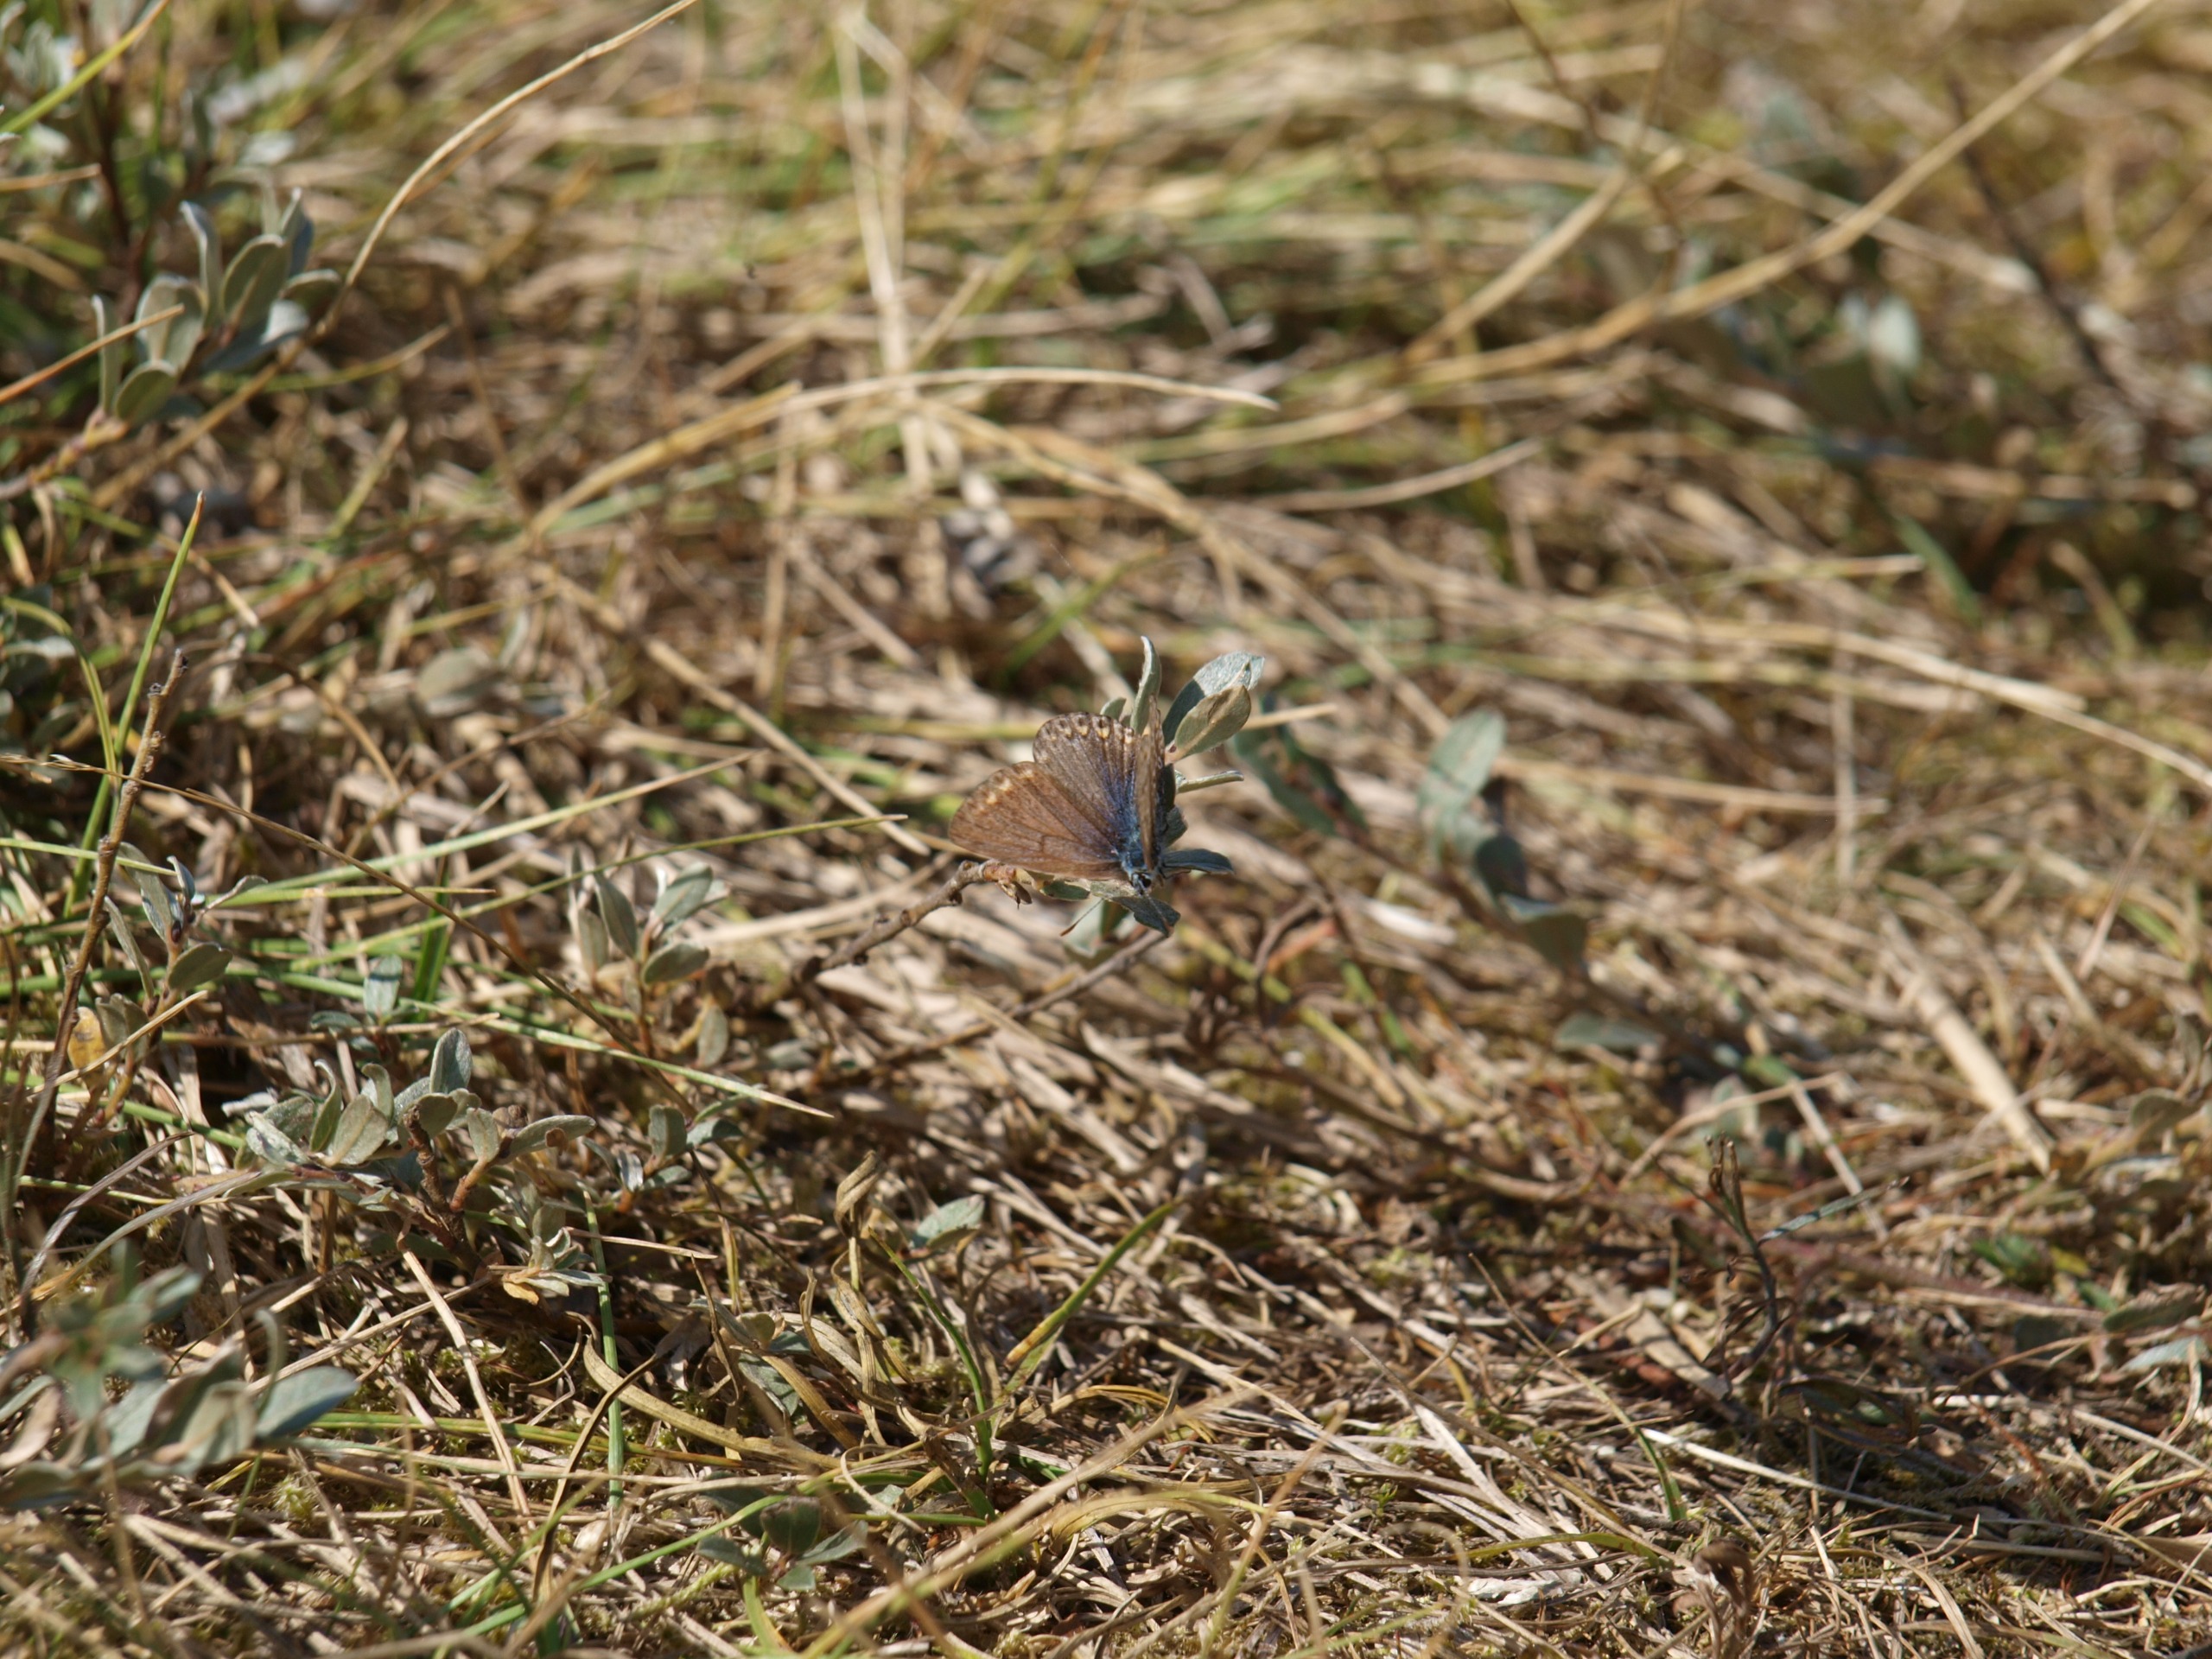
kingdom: Animalia
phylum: Arthropoda
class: Insecta
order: Lepidoptera
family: Lycaenidae
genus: Polyommatus
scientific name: Polyommatus icarus
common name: Almindelig blåfugl
